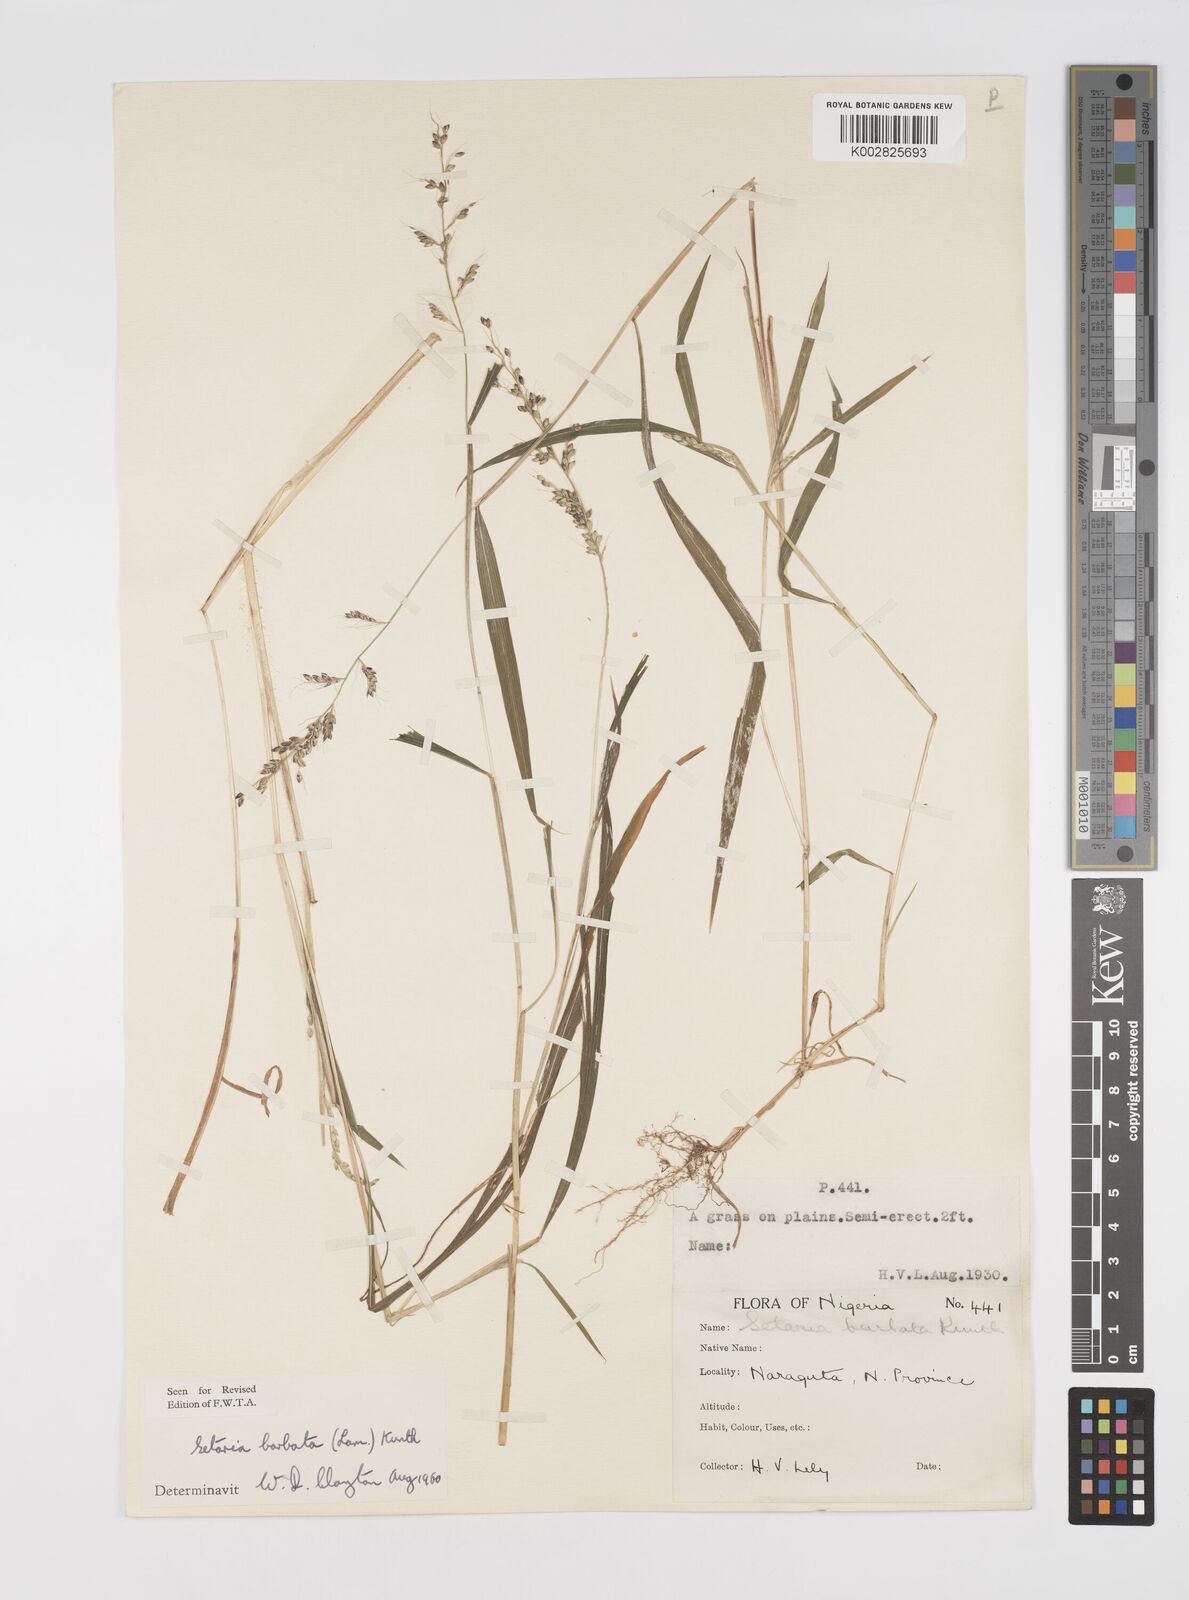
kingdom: Plantae
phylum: Tracheophyta
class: Liliopsida
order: Poales
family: Poaceae
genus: Setaria
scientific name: Setaria barbata
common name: East indian bristlegrass
